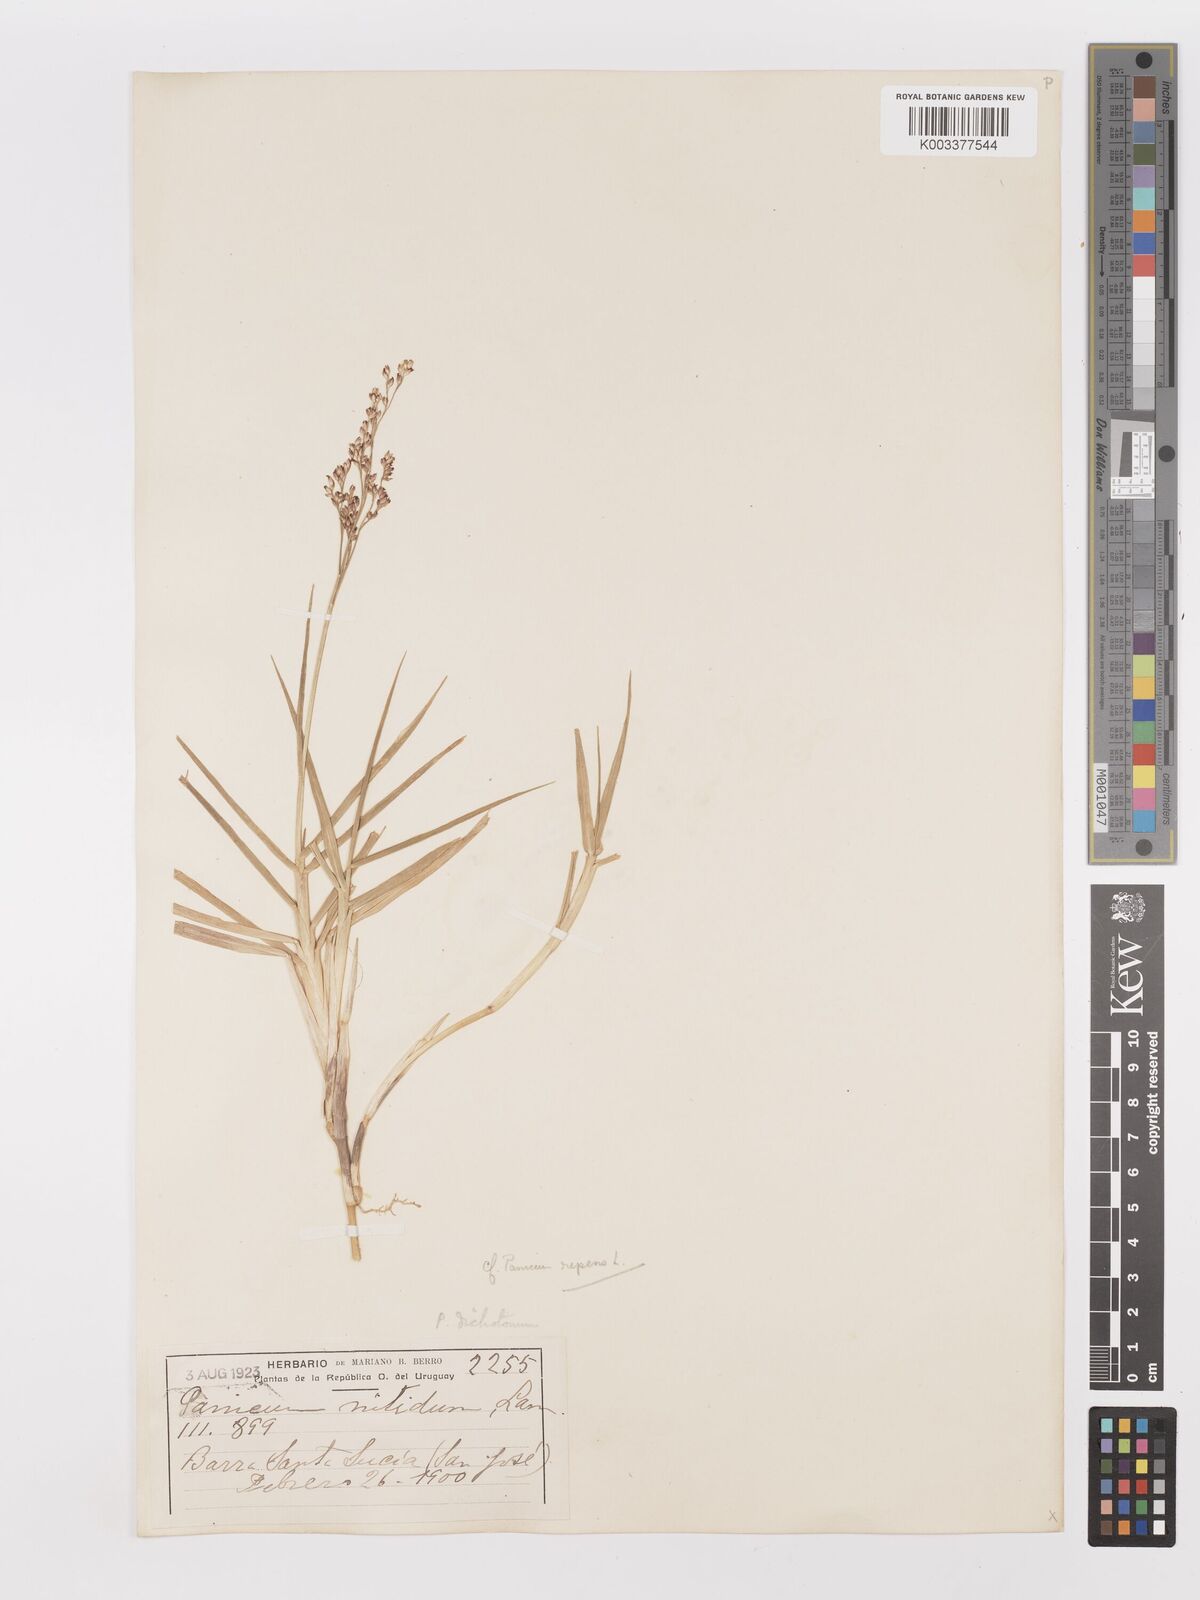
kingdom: Plantae
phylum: Tracheophyta
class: Liliopsida
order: Poales
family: Poaceae
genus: Panicum
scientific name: Panicum repens
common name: Torpedo grass
